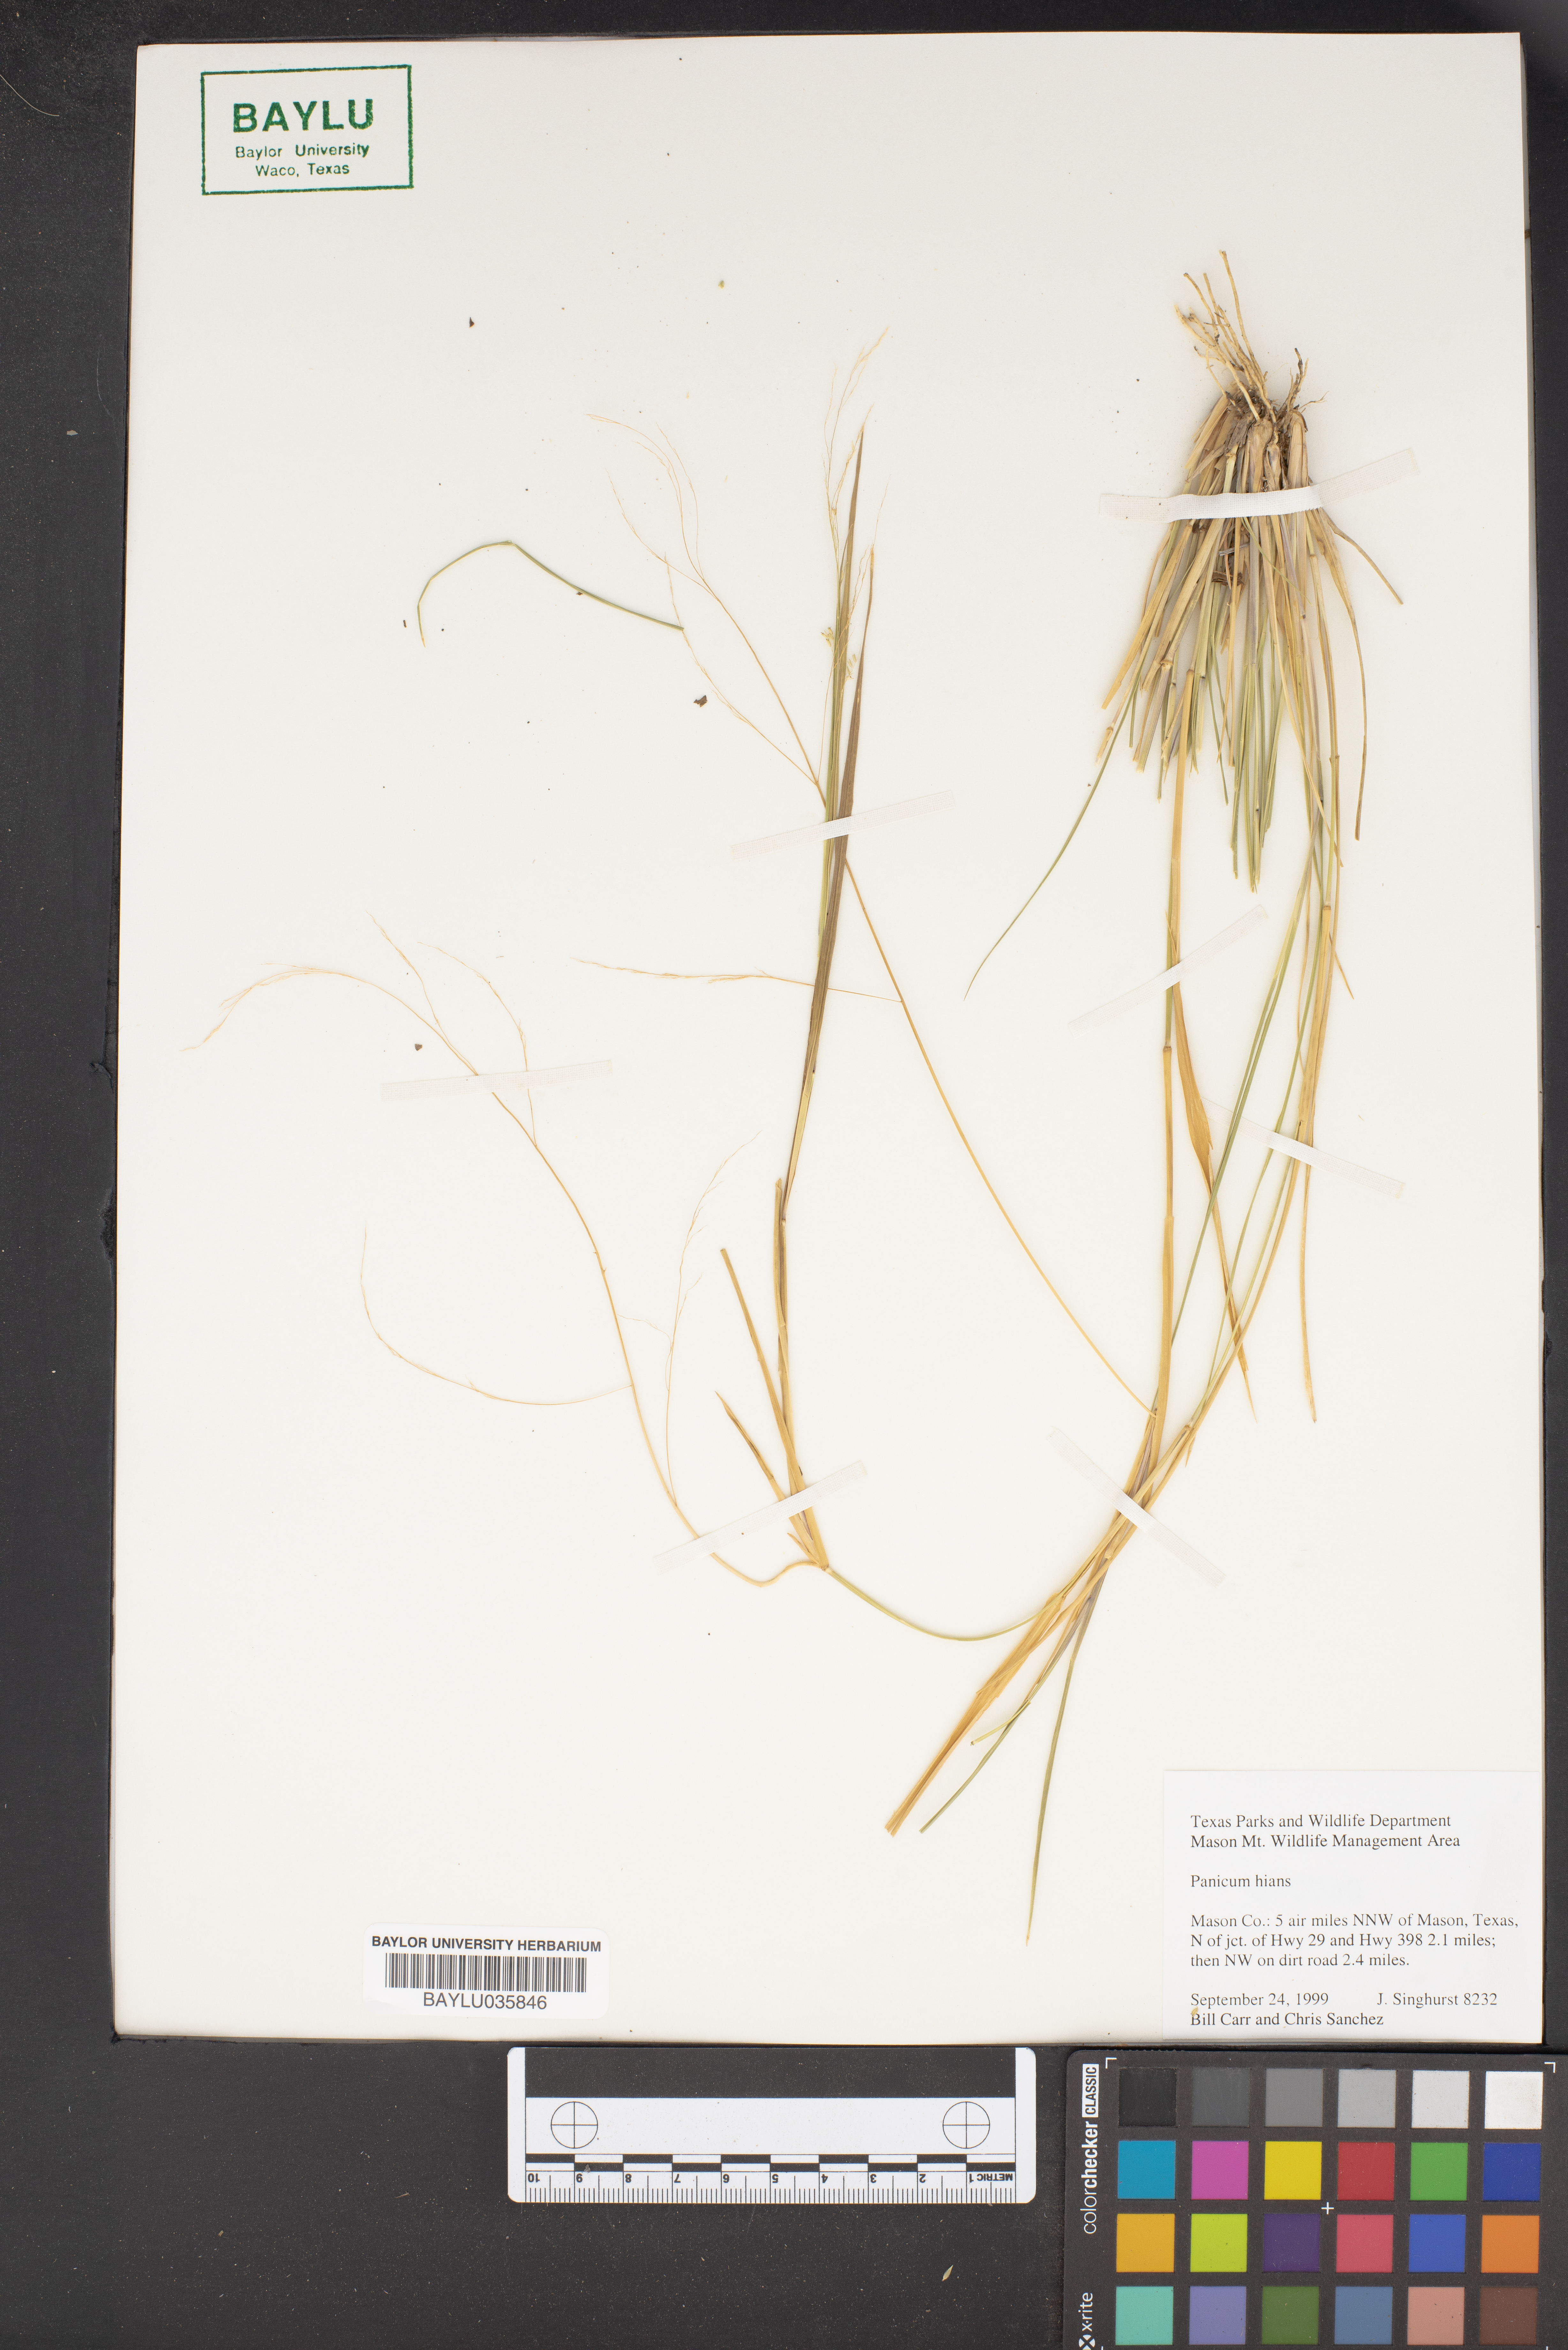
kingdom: Plantae
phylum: Tracheophyta
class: Liliopsida
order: Poales
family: Poaceae
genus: Coleataenia
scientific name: Coleataenia stenodes
